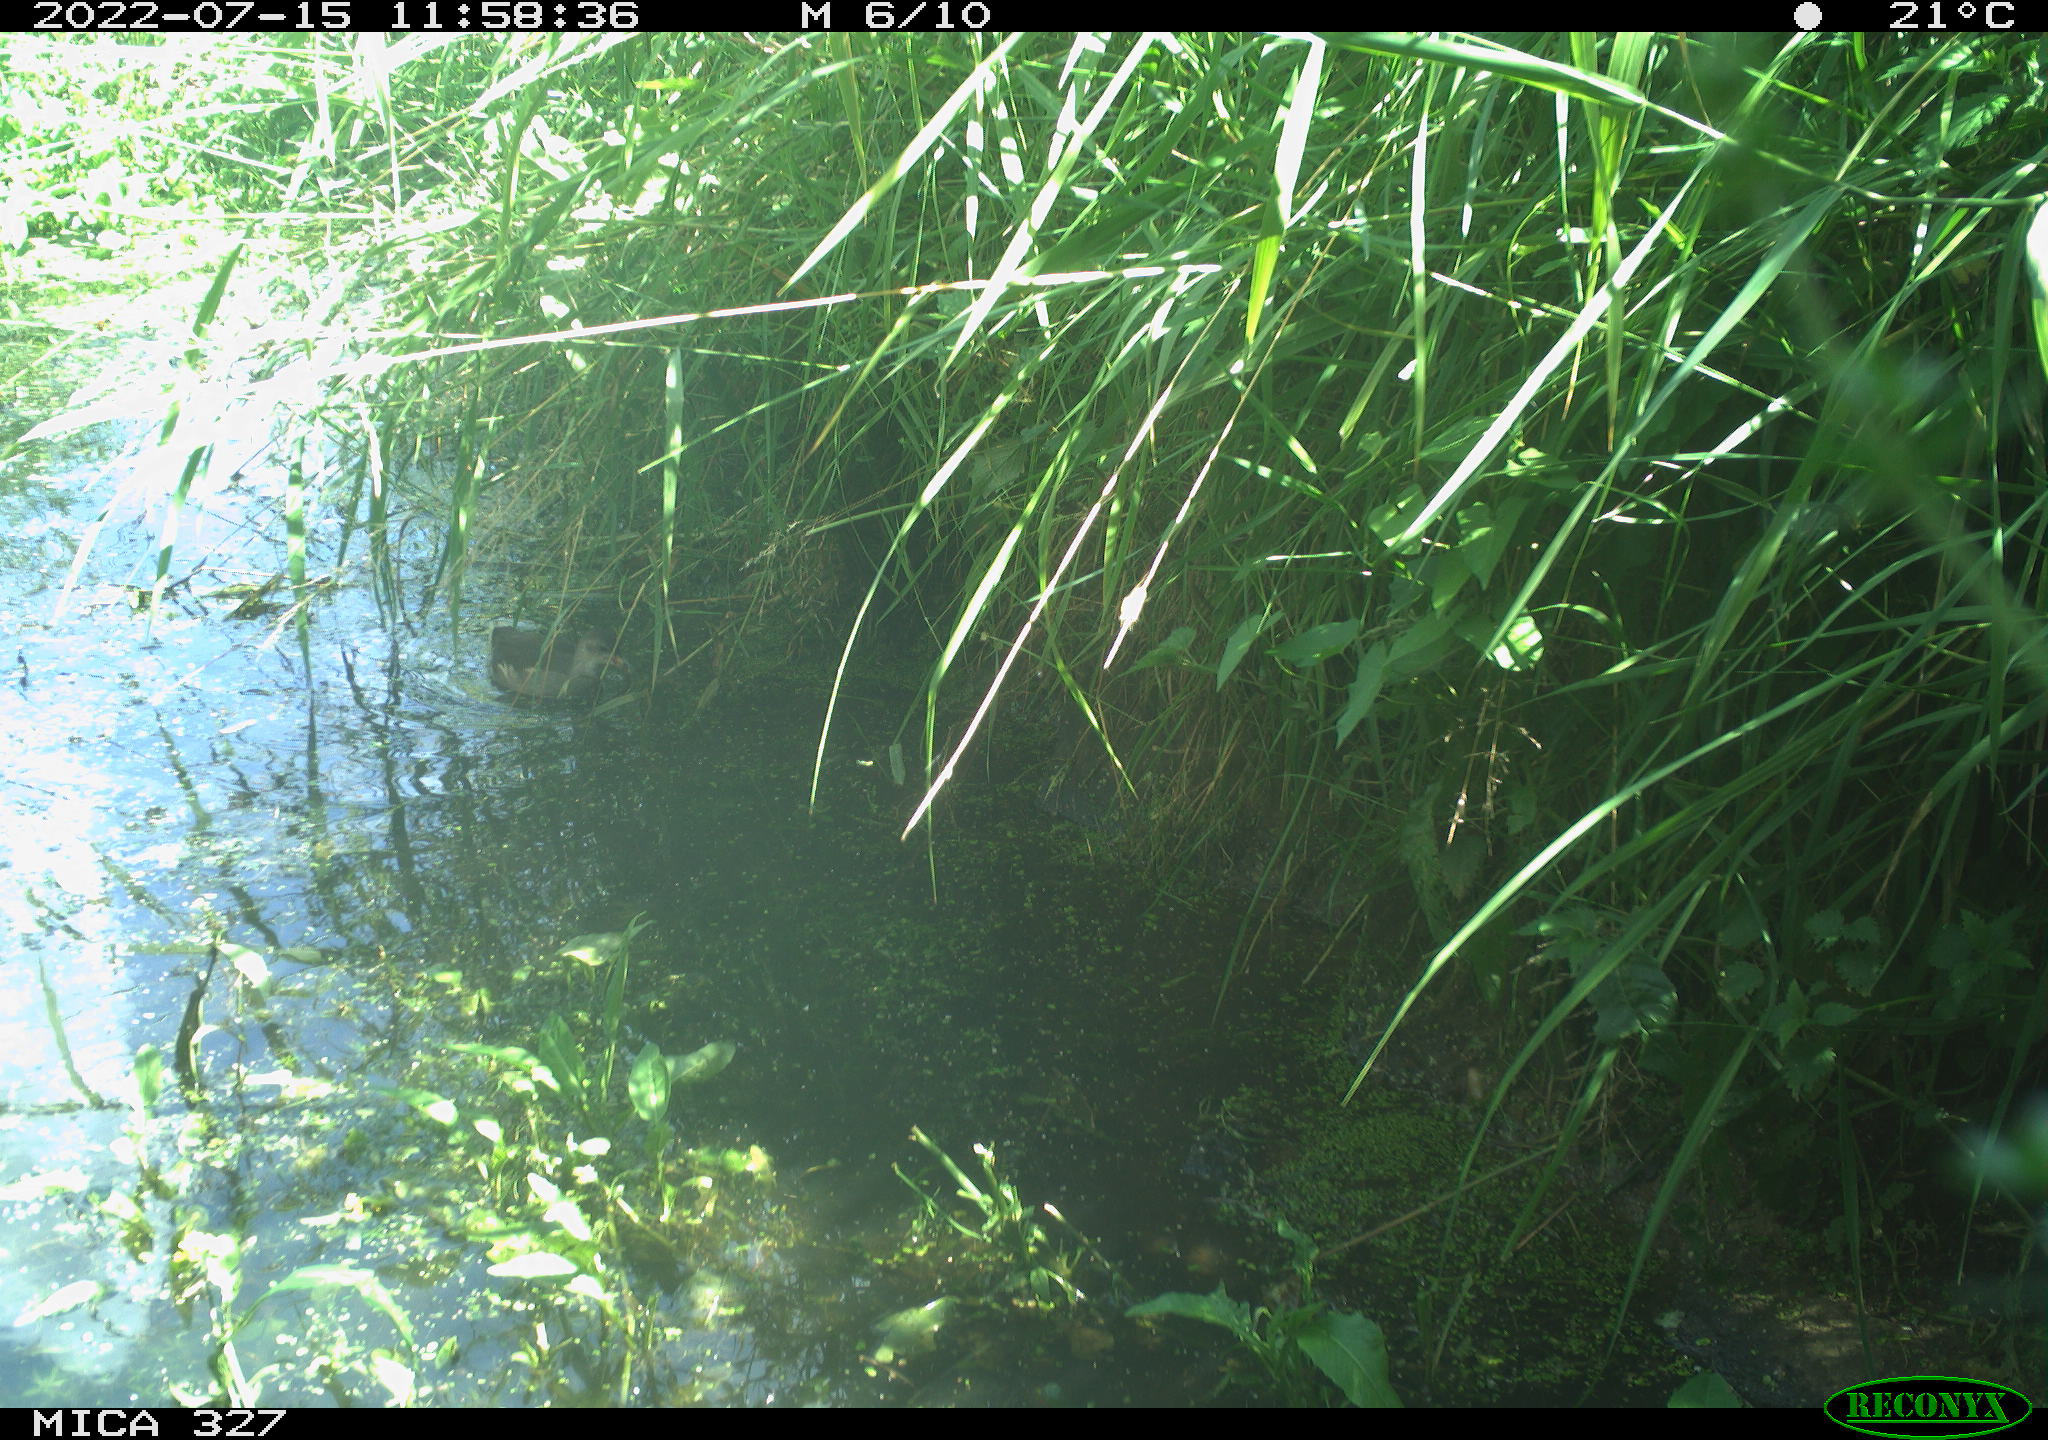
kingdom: Animalia
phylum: Chordata
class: Aves
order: Gruiformes
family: Rallidae
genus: Gallinula
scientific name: Gallinula chloropus
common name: Common moorhen
